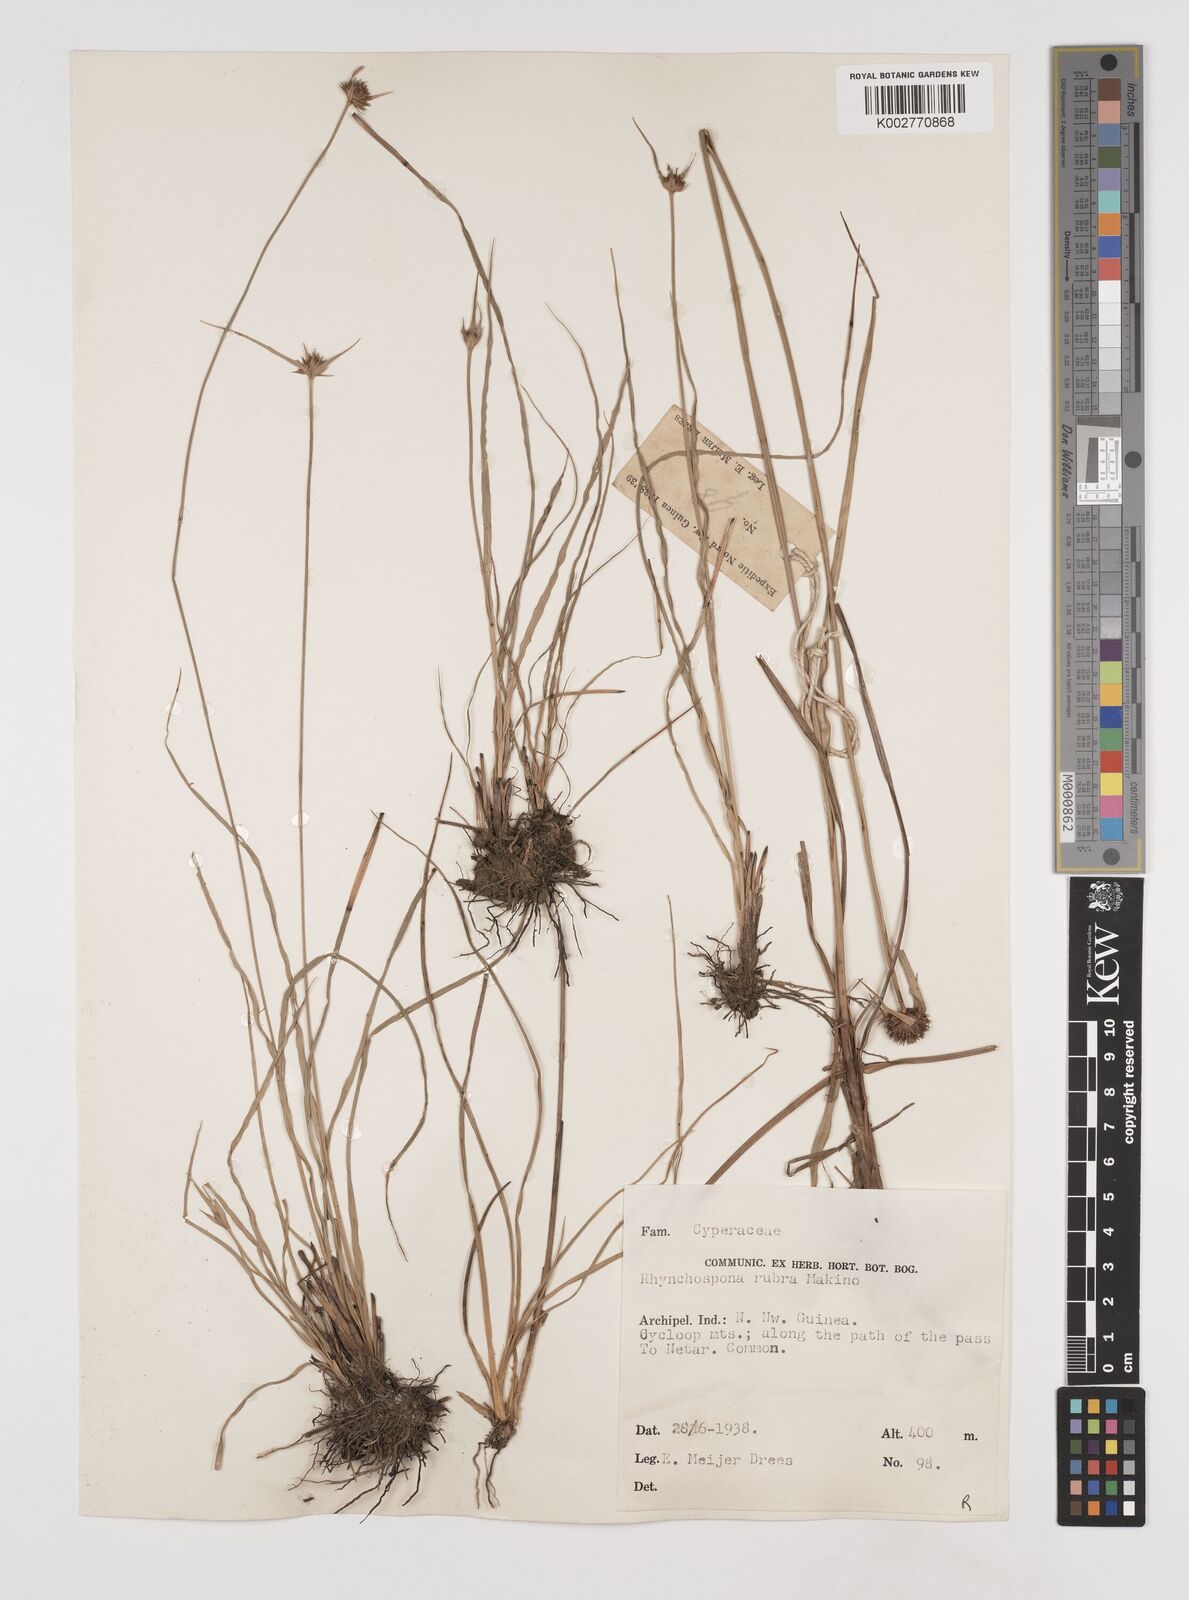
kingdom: Plantae
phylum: Tracheophyta
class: Liliopsida
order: Poales
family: Cyperaceae
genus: Rhynchospora
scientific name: Rhynchospora rubra
